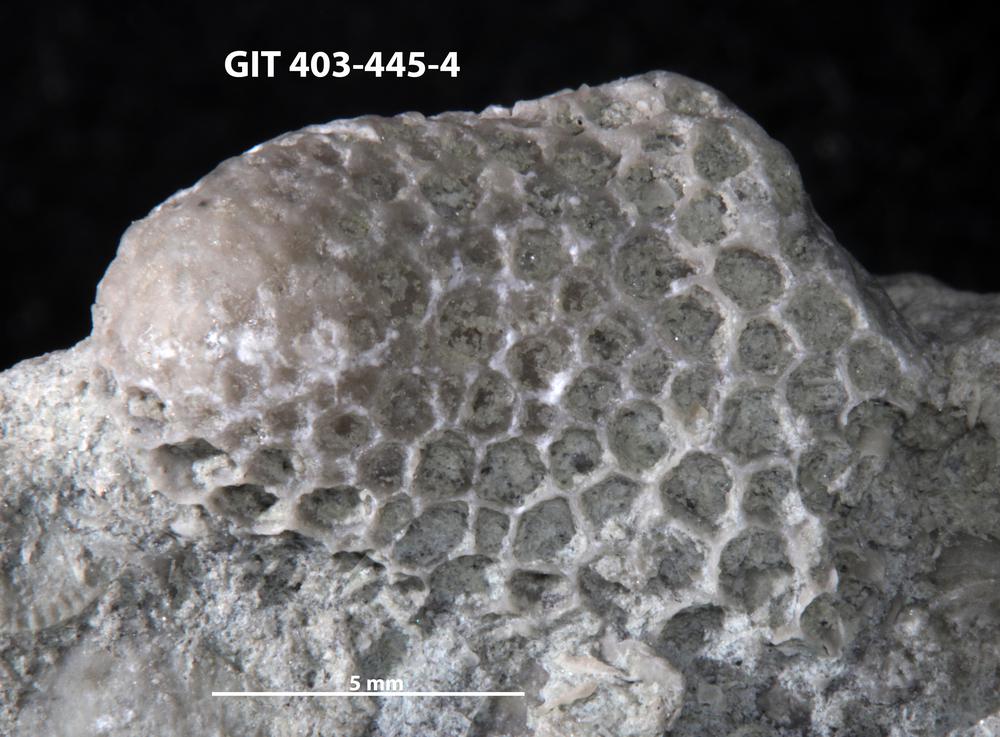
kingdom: Animalia
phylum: Cnidaria
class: Anthozoa
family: Favositidae
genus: Favosites
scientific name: Favosites
